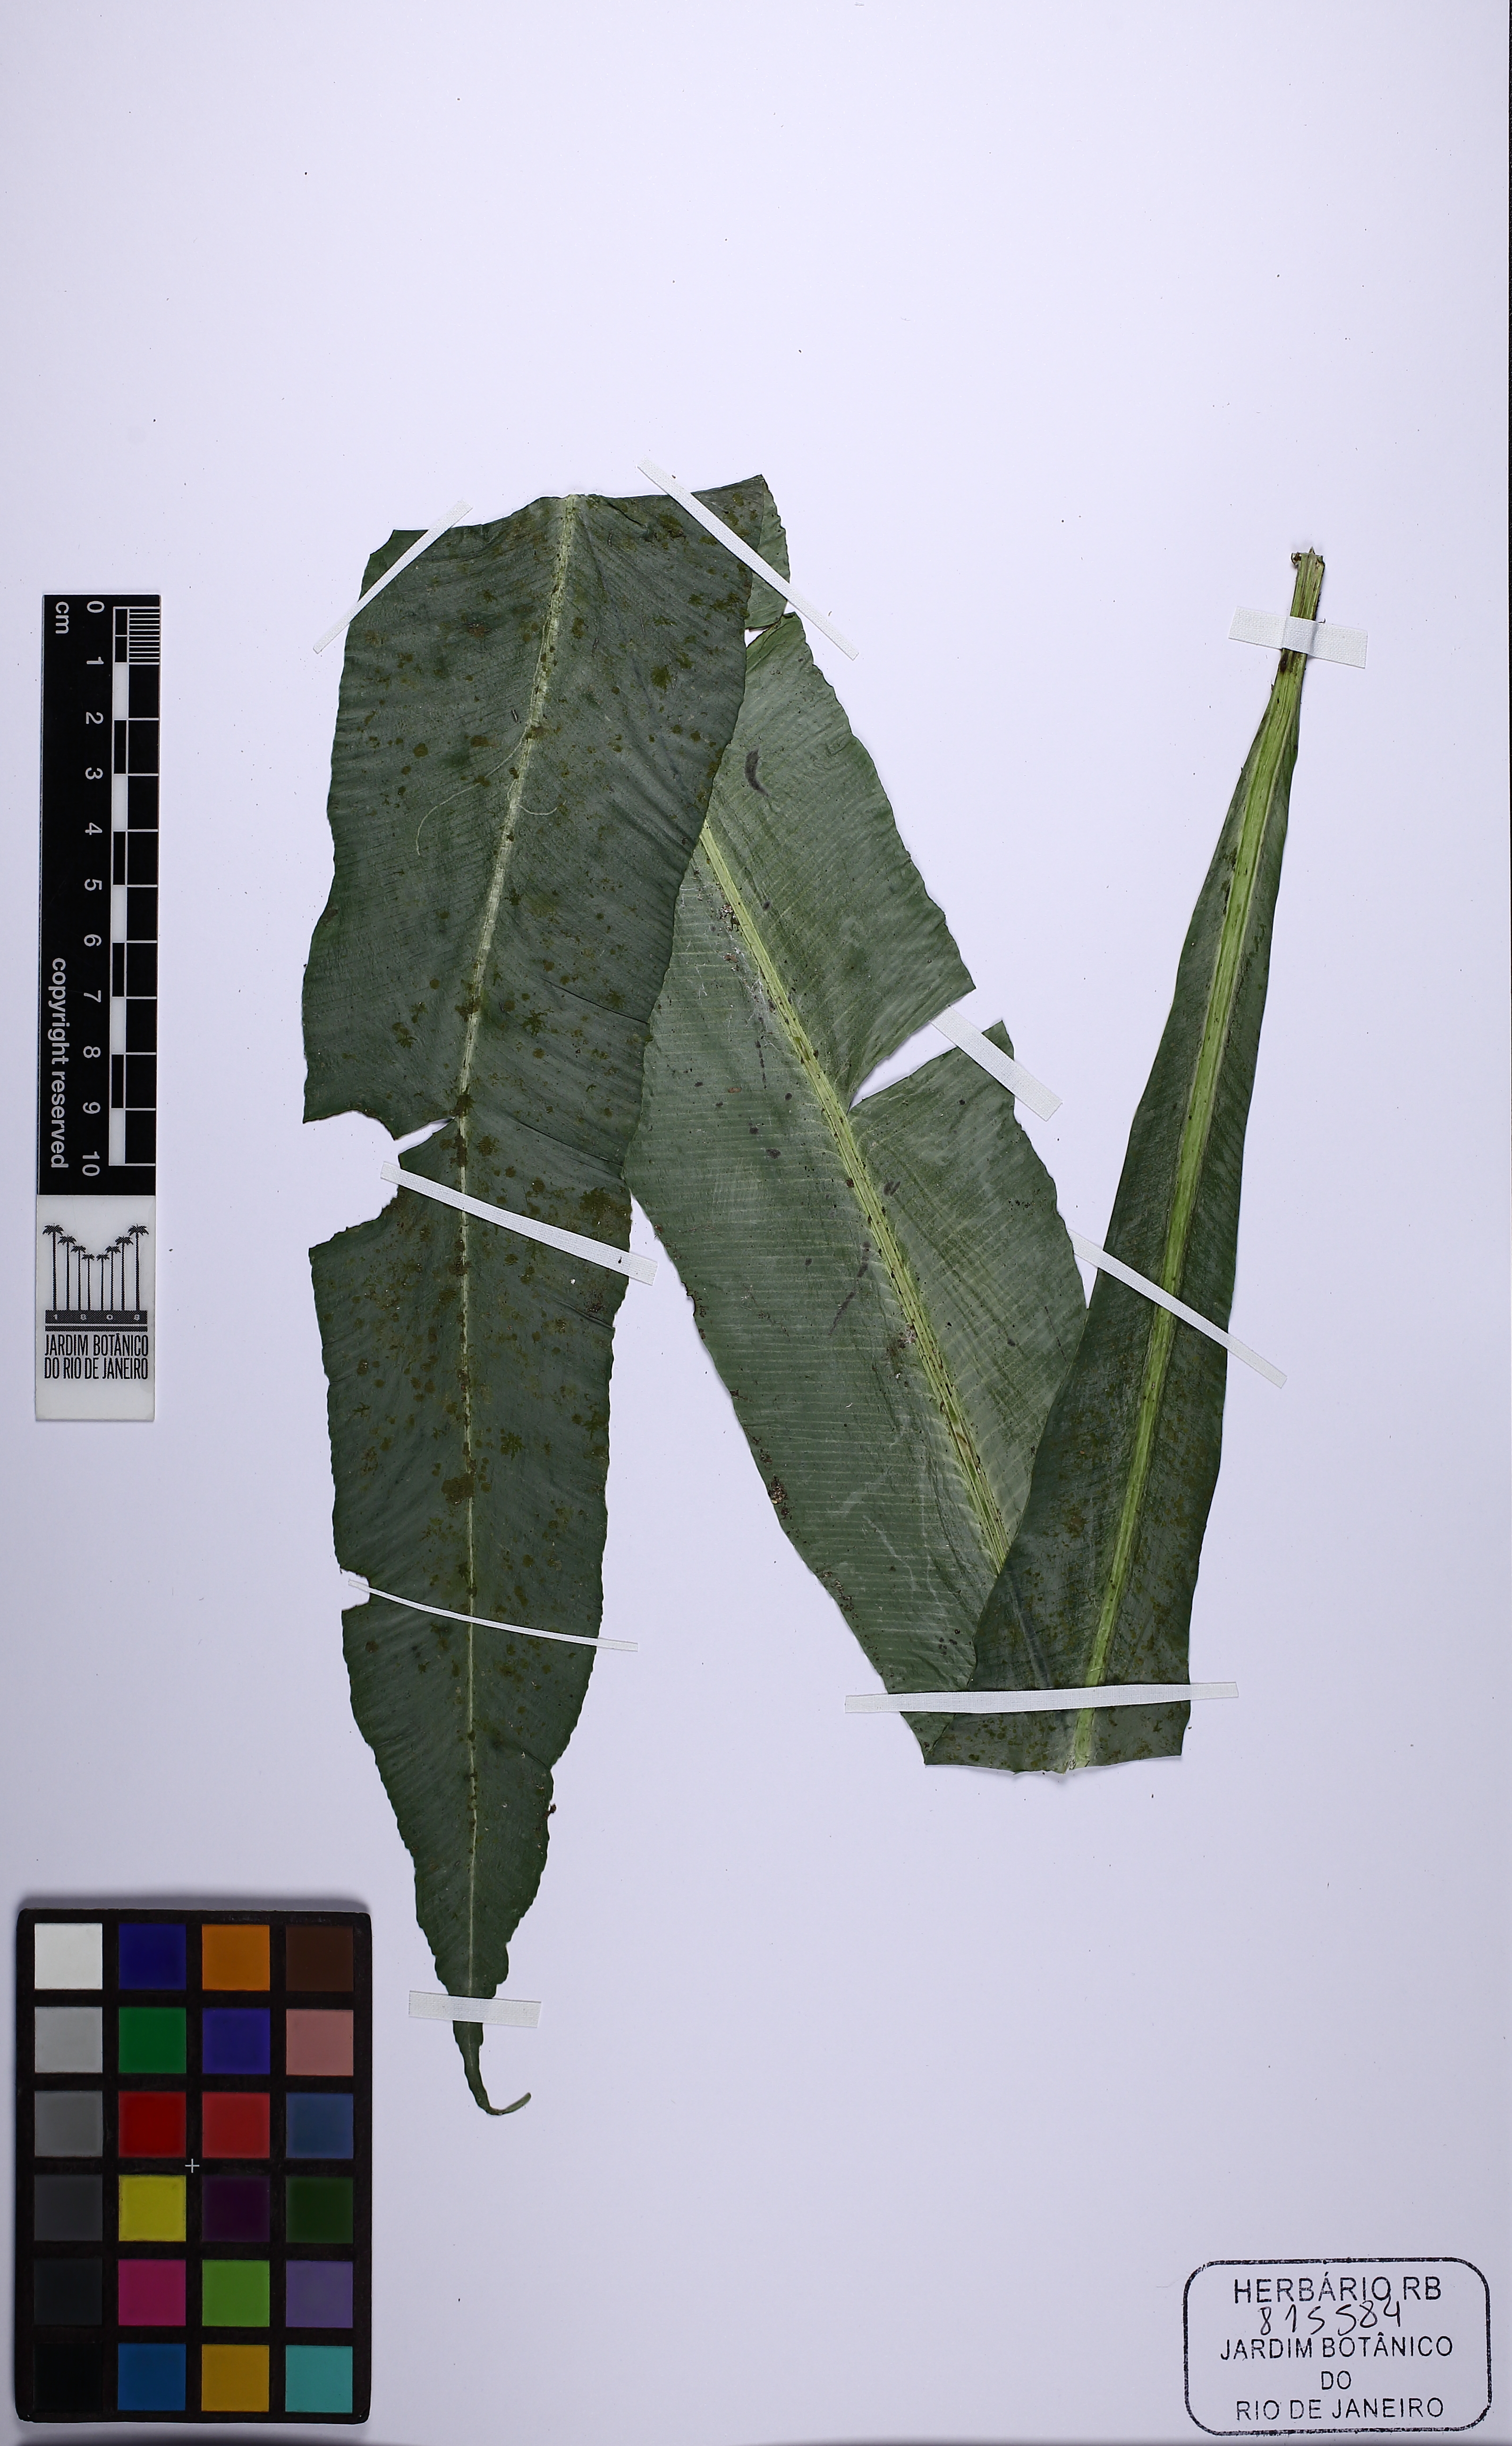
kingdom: Plantae
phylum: Tracheophyta
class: Polypodiopsida
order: Polypodiales
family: Aspleniaceae
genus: Asplenium
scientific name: Asplenium coronatum
